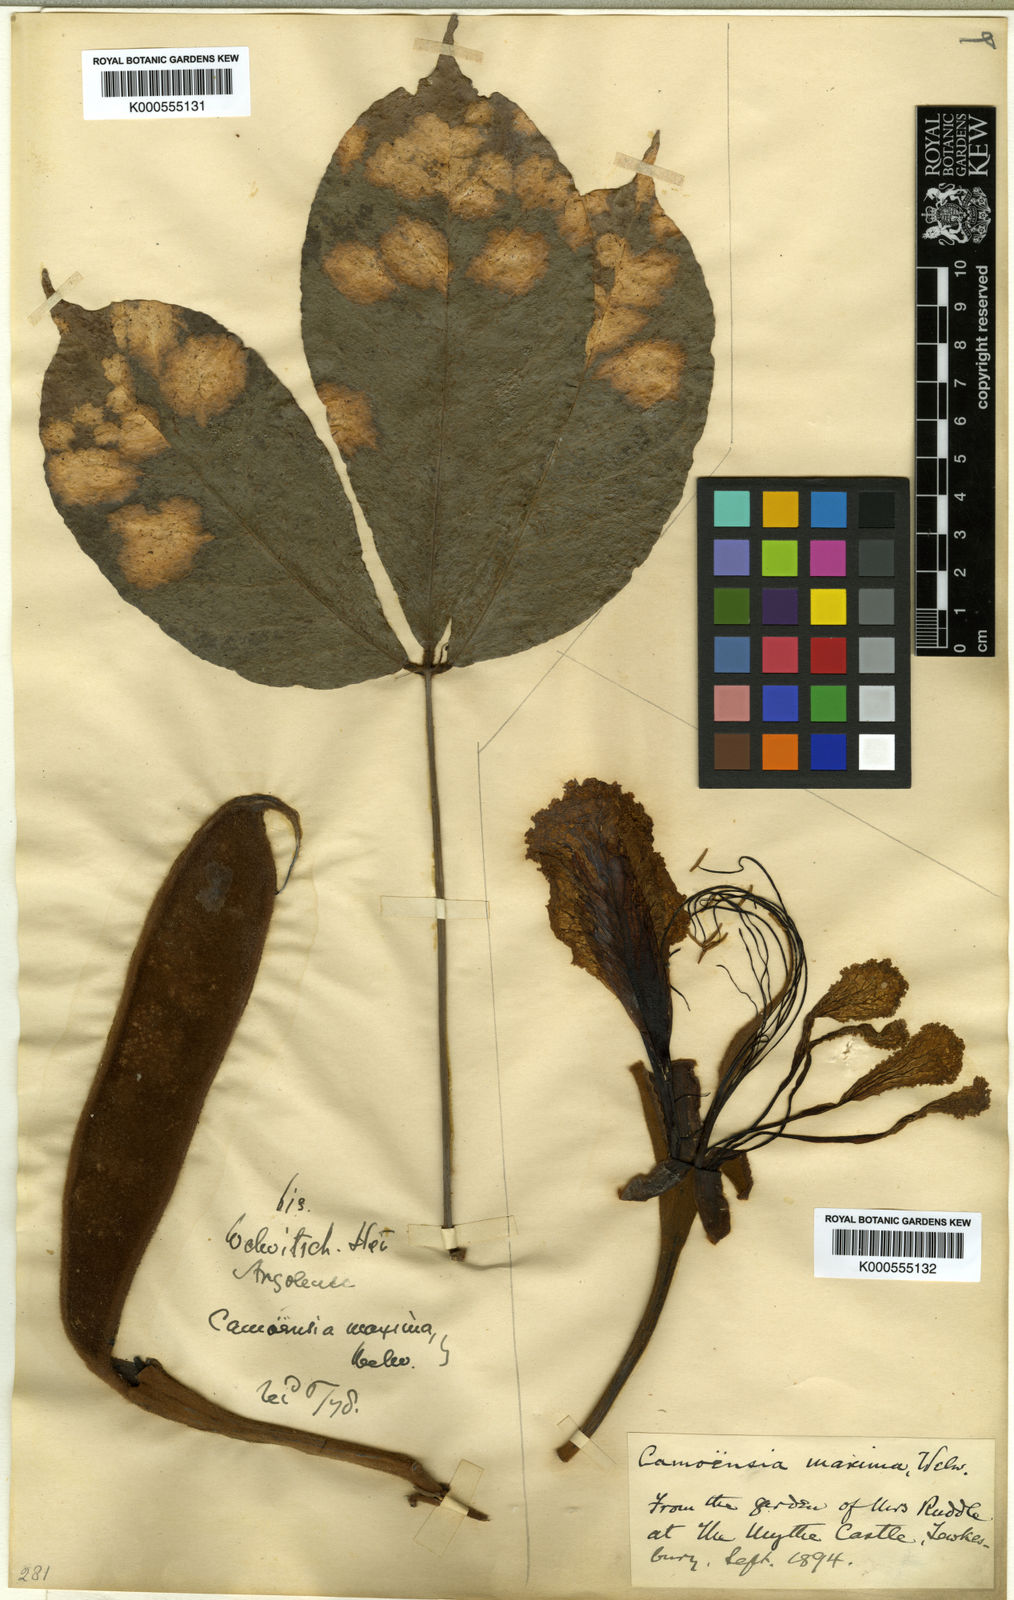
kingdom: Plantae
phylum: Tracheophyta
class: Magnoliopsida
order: Fabales
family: Fabaceae
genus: Camoensia
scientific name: Camoensia scandens
